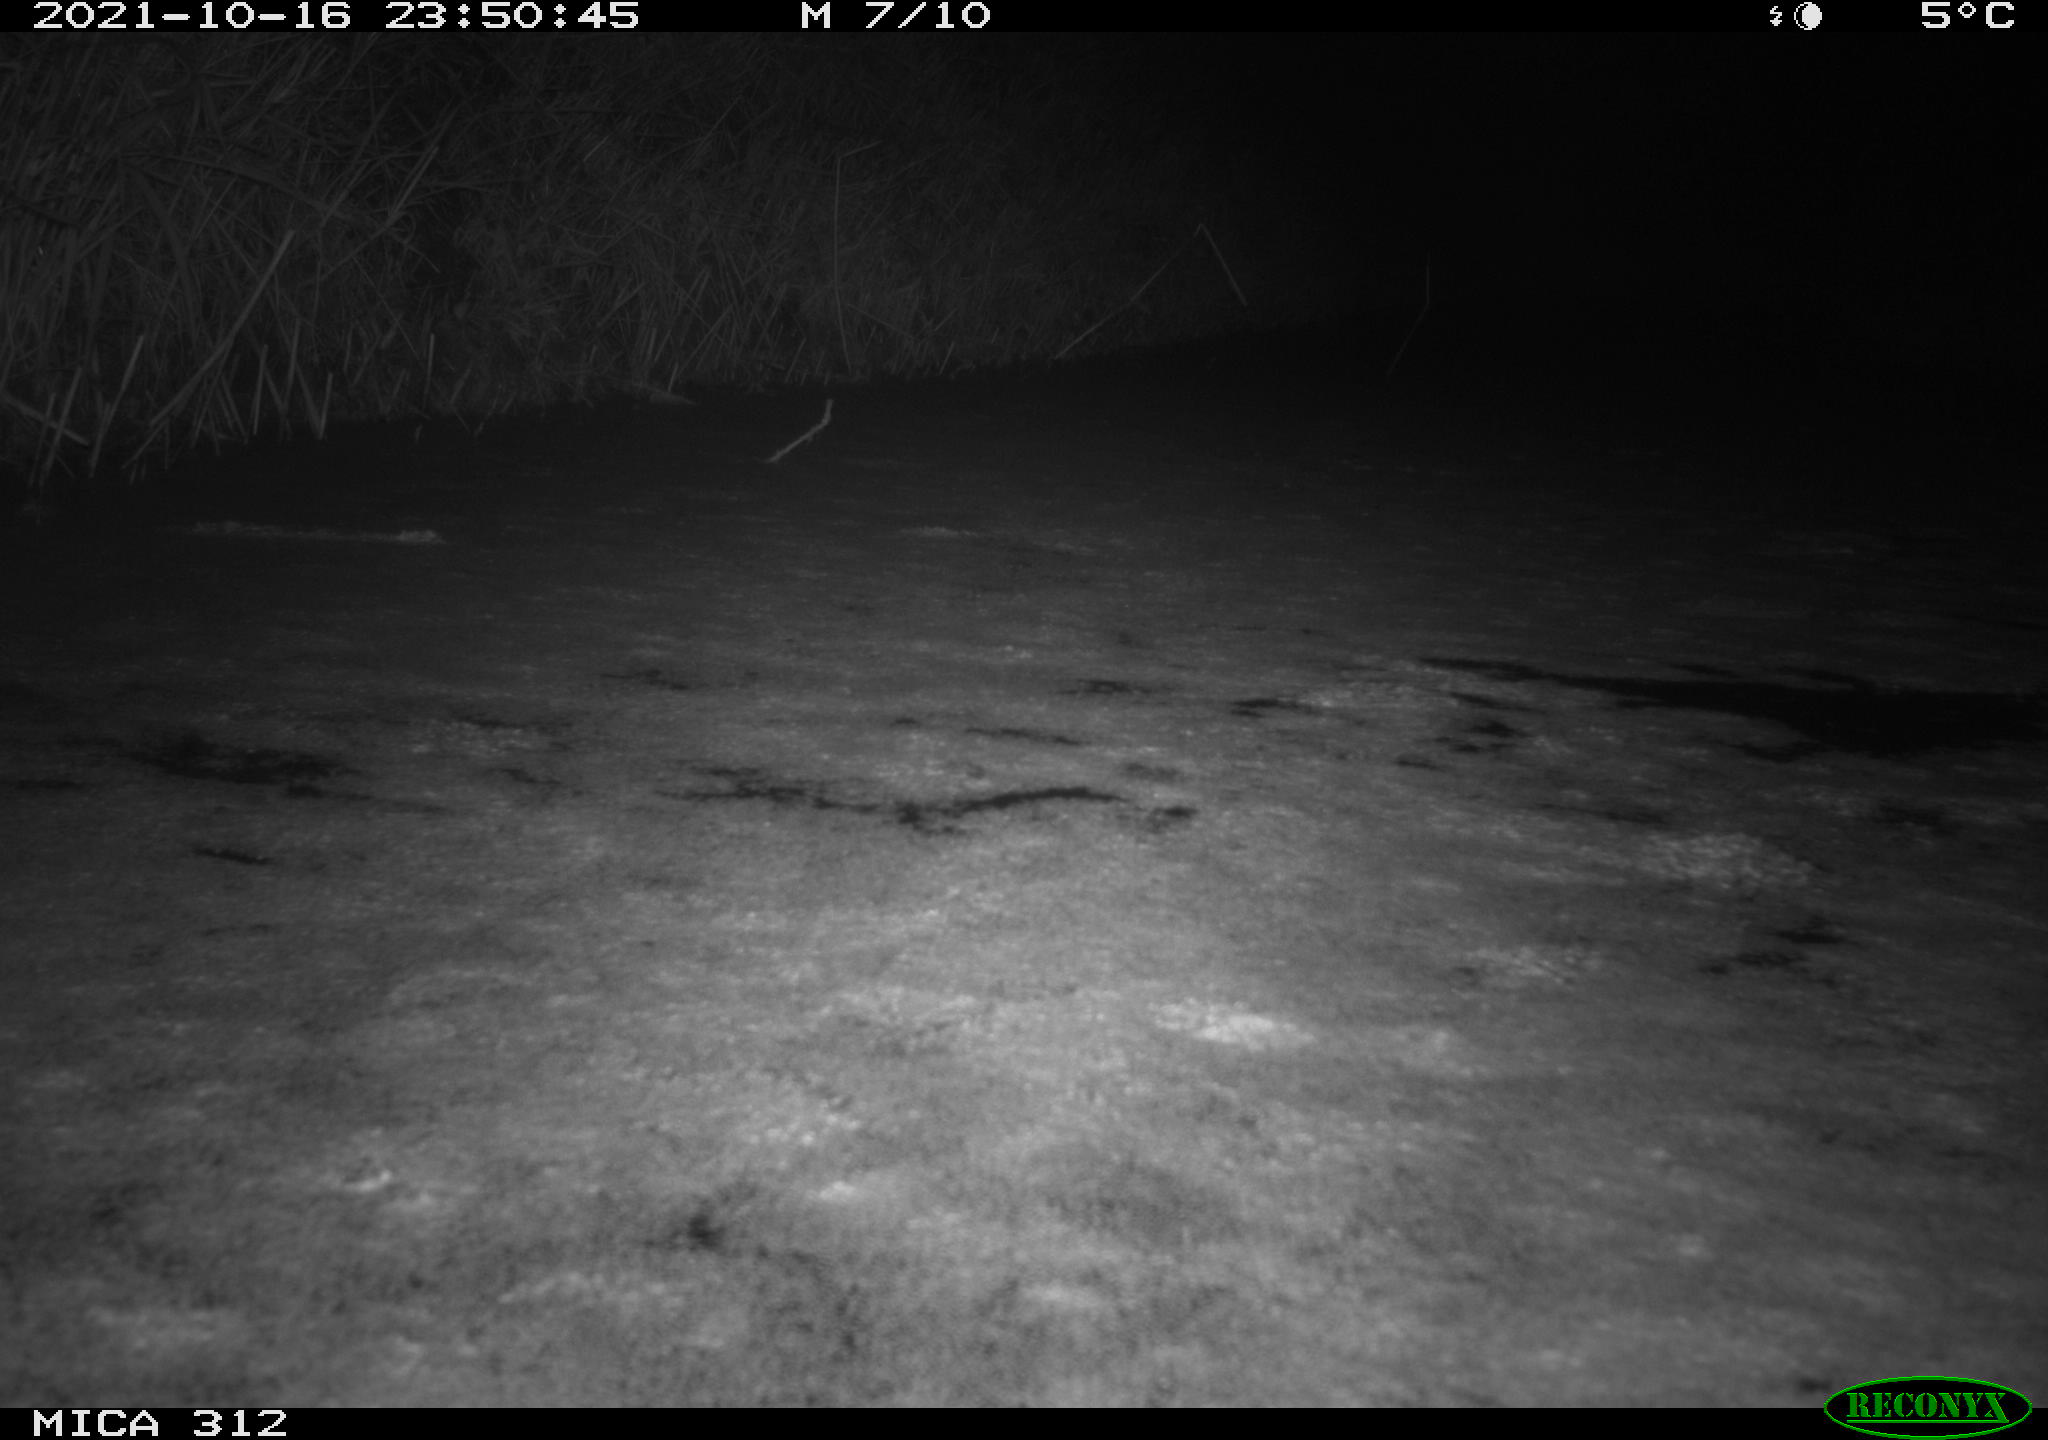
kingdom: Animalia
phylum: Chordata
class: Mammalia
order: Rodentia
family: Muridae
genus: Rattus
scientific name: Rattus norvegicus
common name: Brown rat
